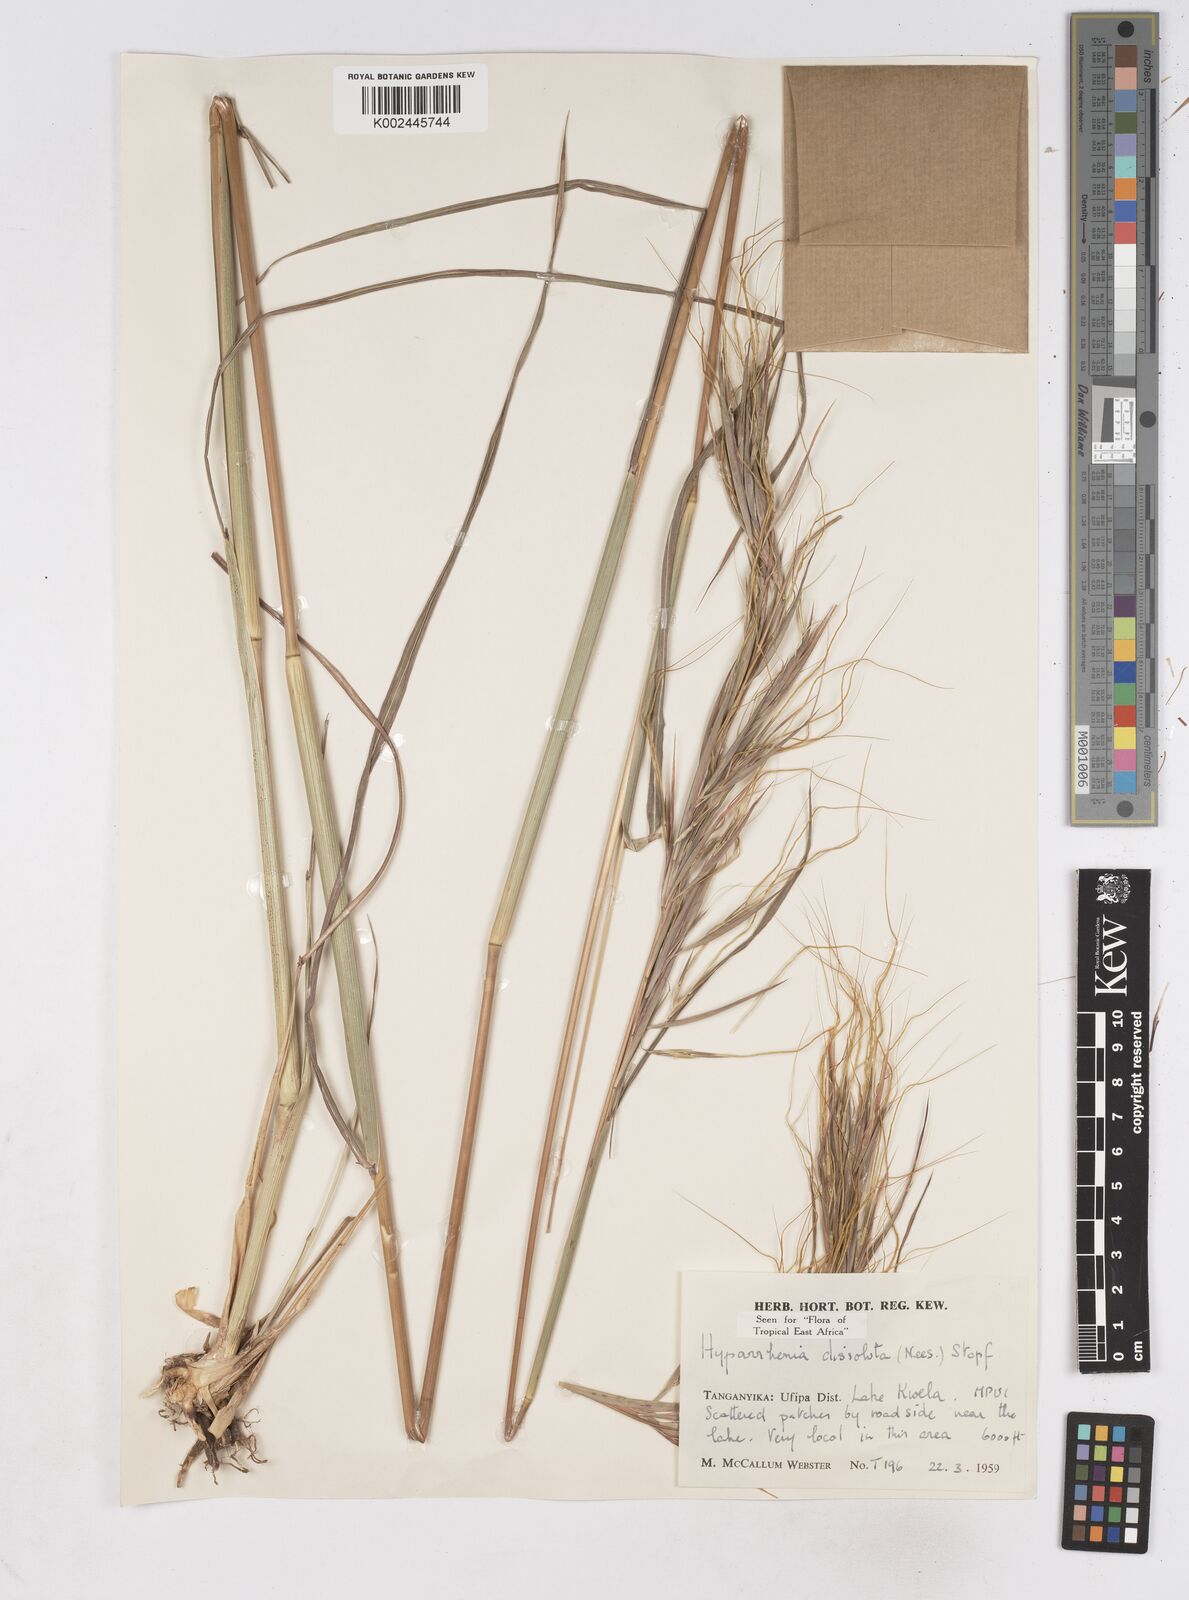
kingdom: Plantae
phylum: Tracheophyta
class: Liliopsida
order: Poales
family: Poaceae
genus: Hyperthelia
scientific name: Hyperthelia dissoluta
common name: Yellow thatching grass
